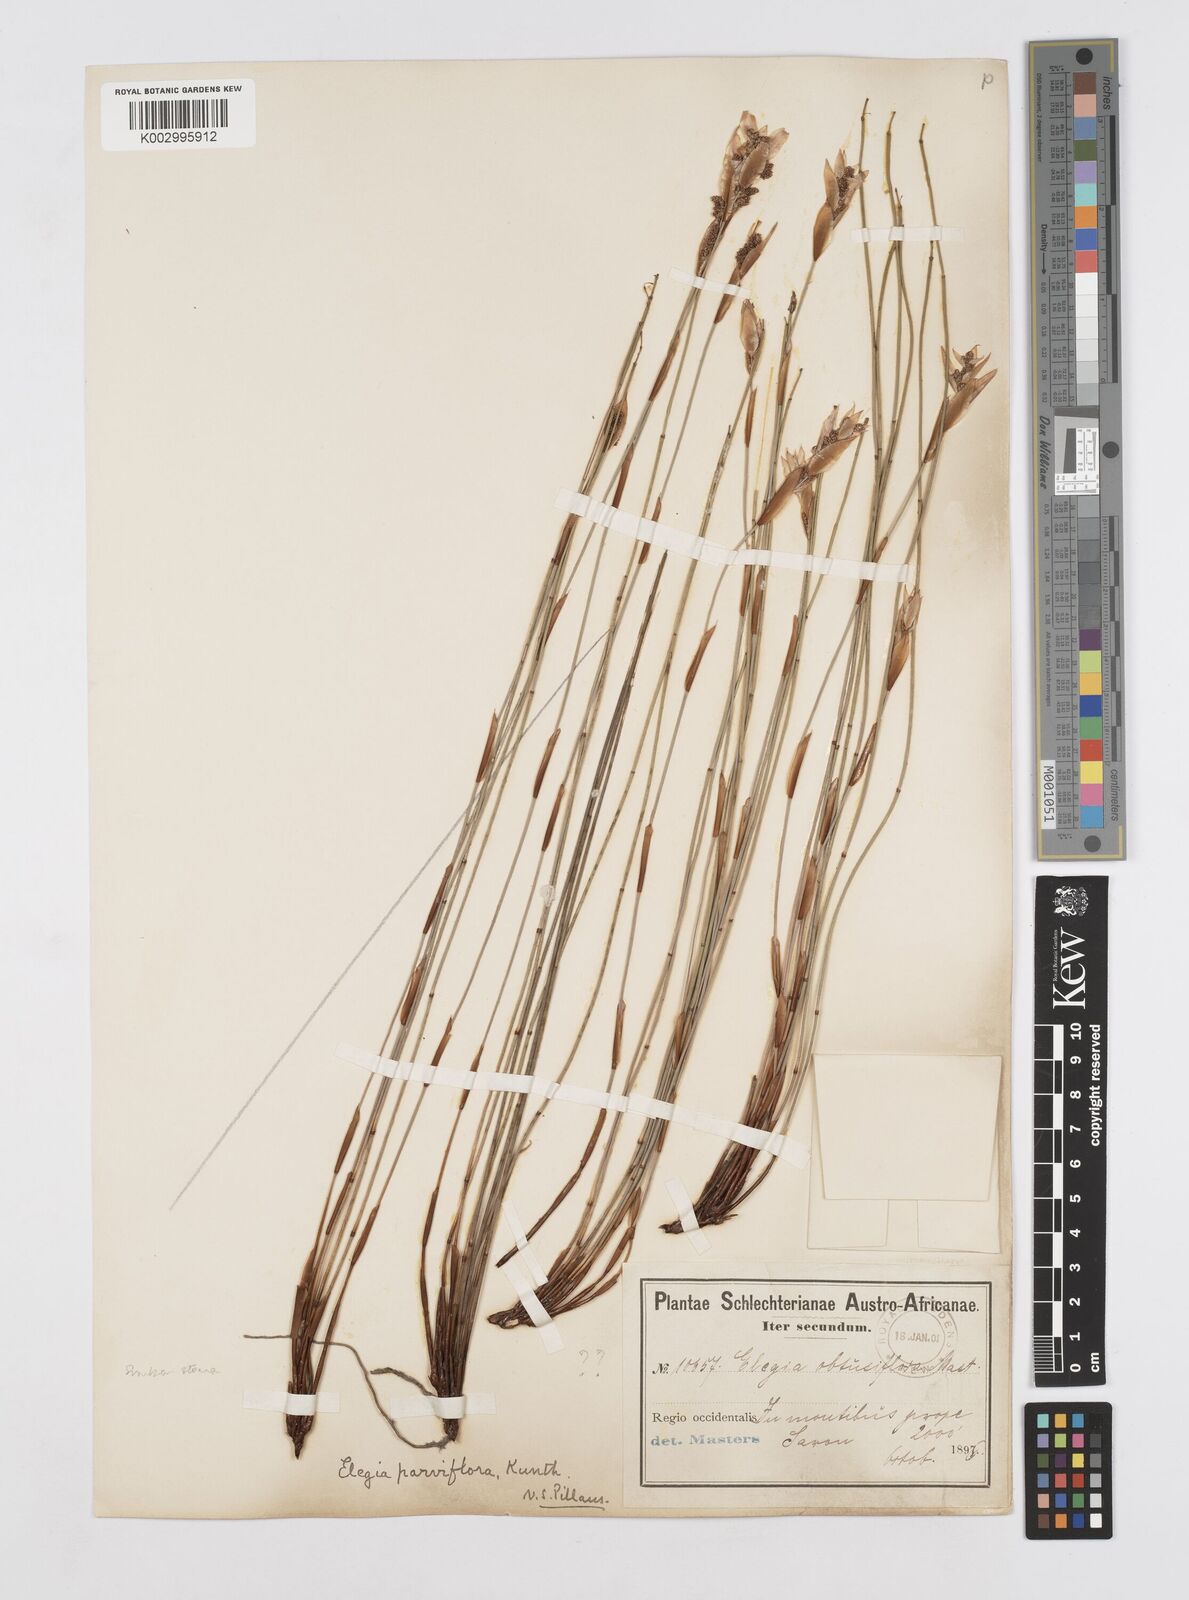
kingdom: Plantae
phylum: Tracheophyta
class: Liliopsida
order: Poales
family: Restionaceae
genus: Cannomois
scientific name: Cannomois parviflora
